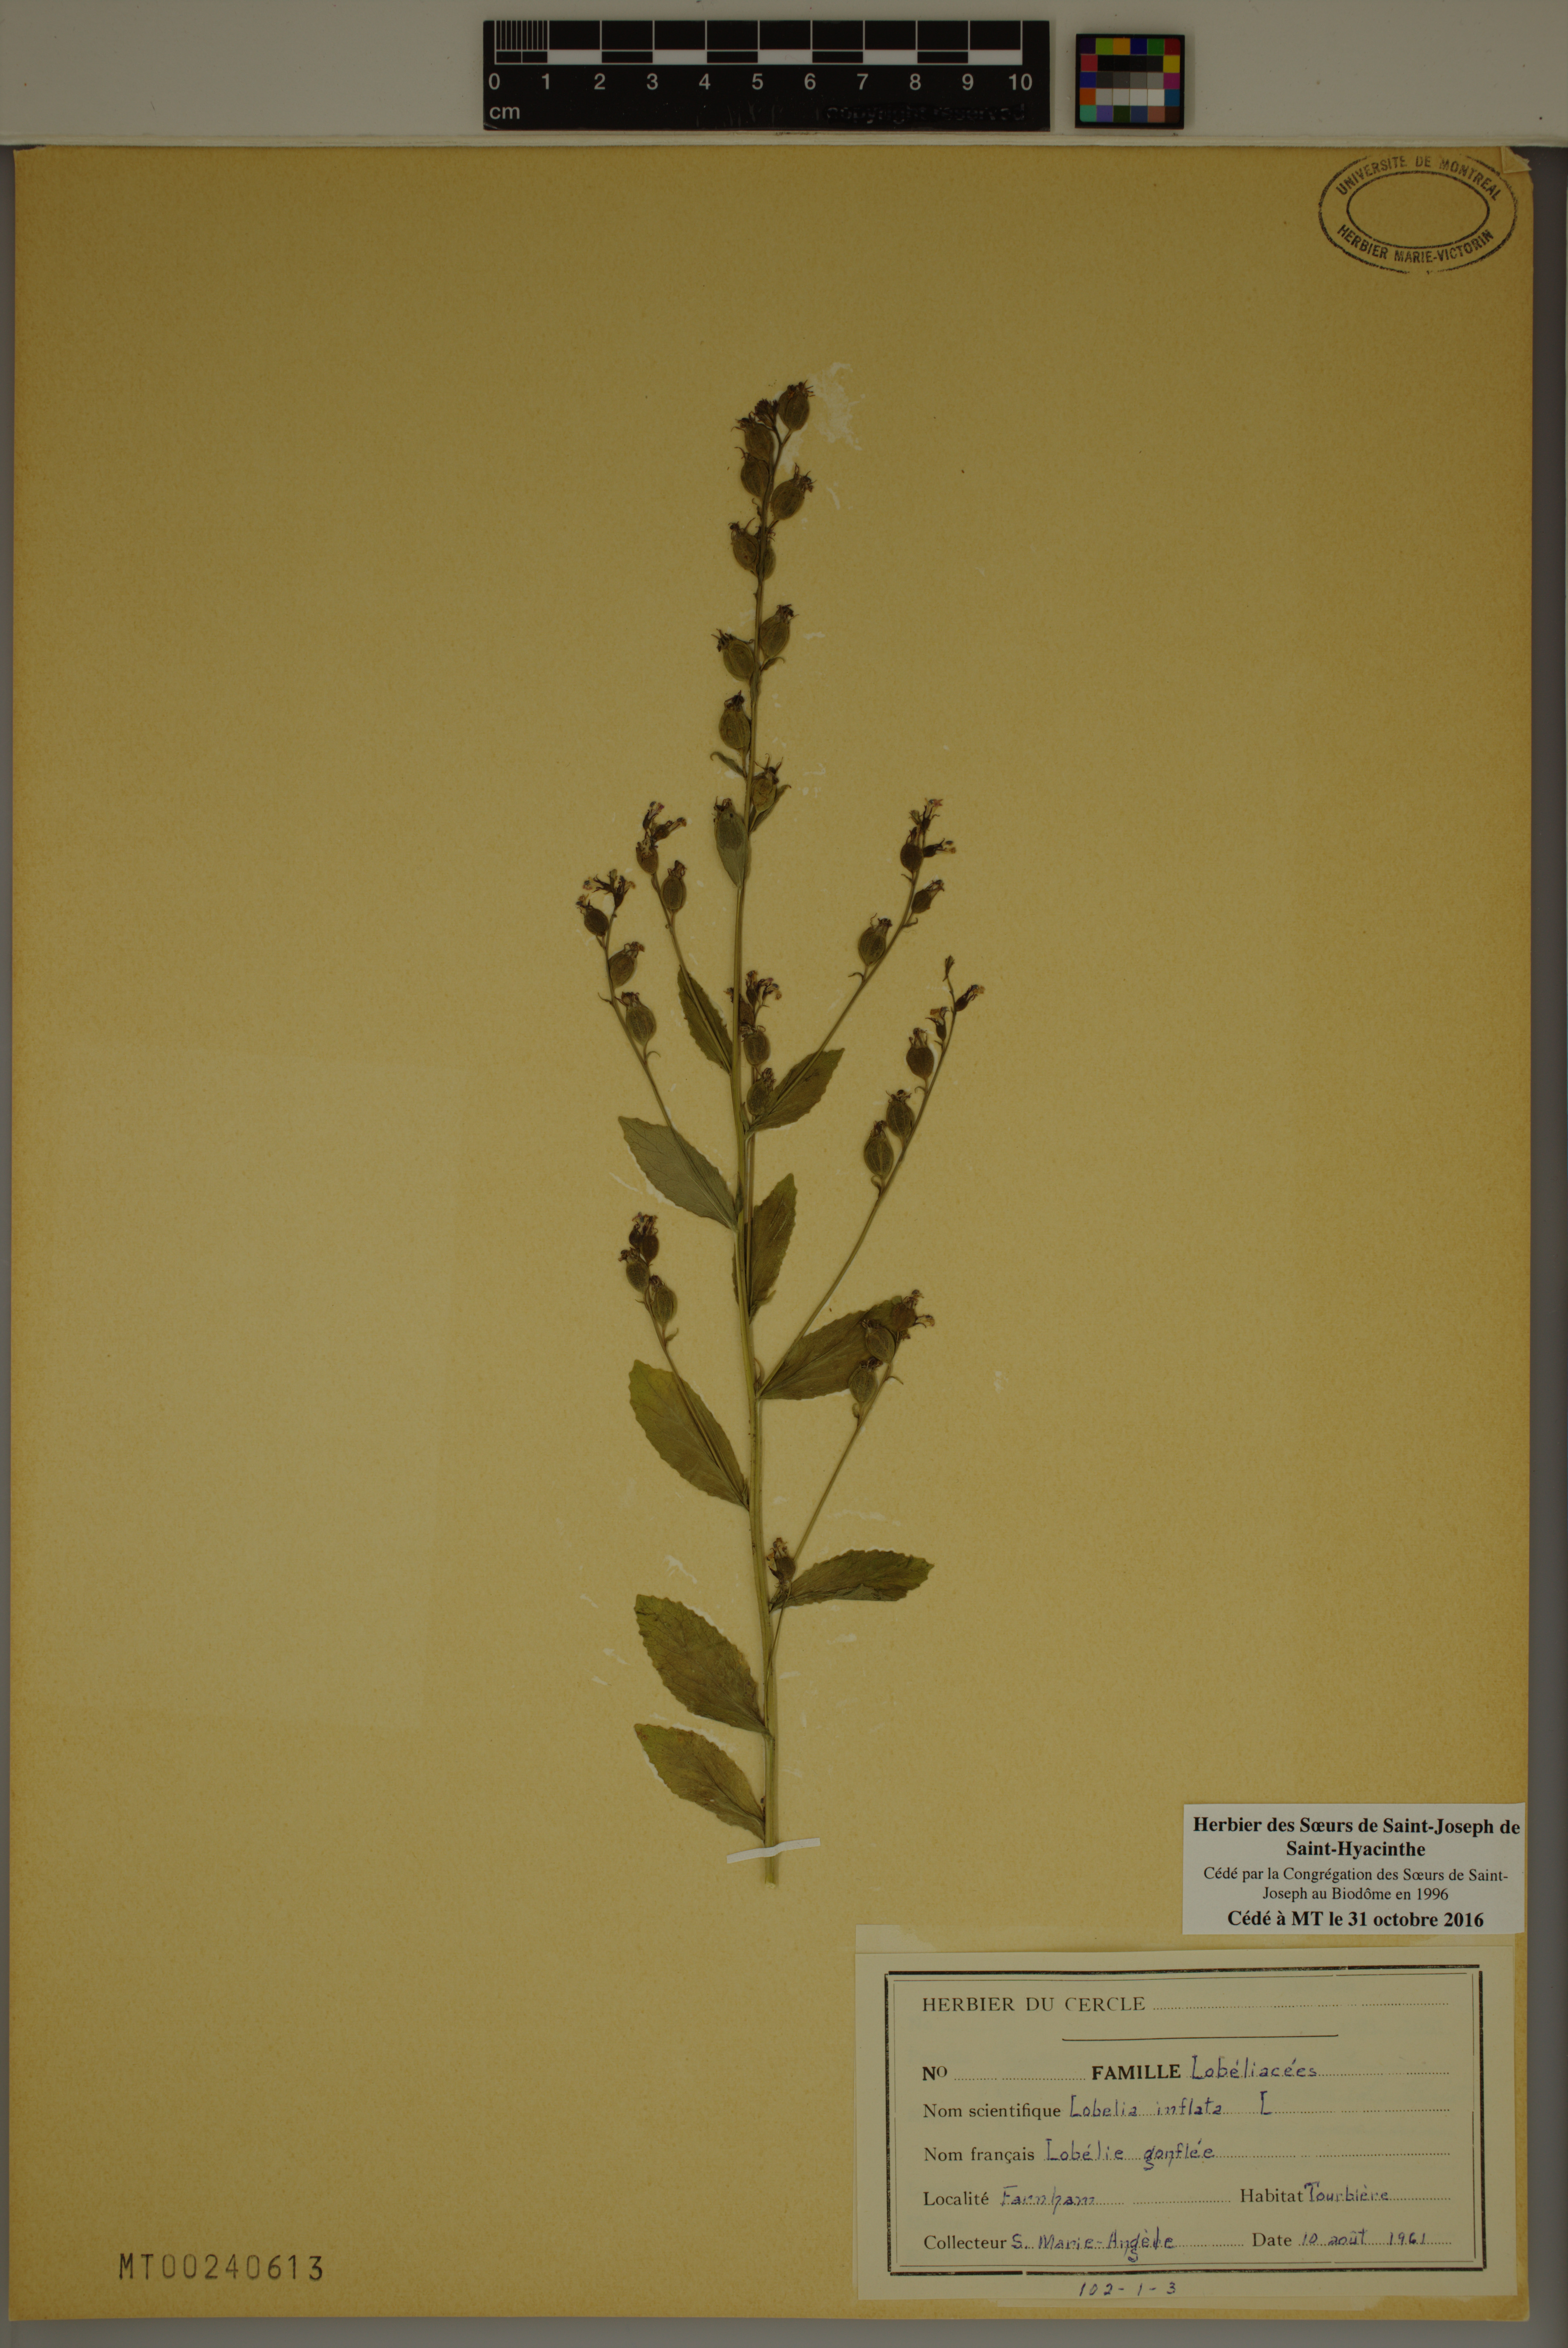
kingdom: Plantae
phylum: Tracheophyta
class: Magnoliopsida
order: Asterales
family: Campanulaceae
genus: Lobelia
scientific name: Lobelia inflata
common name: Indian tobacco
